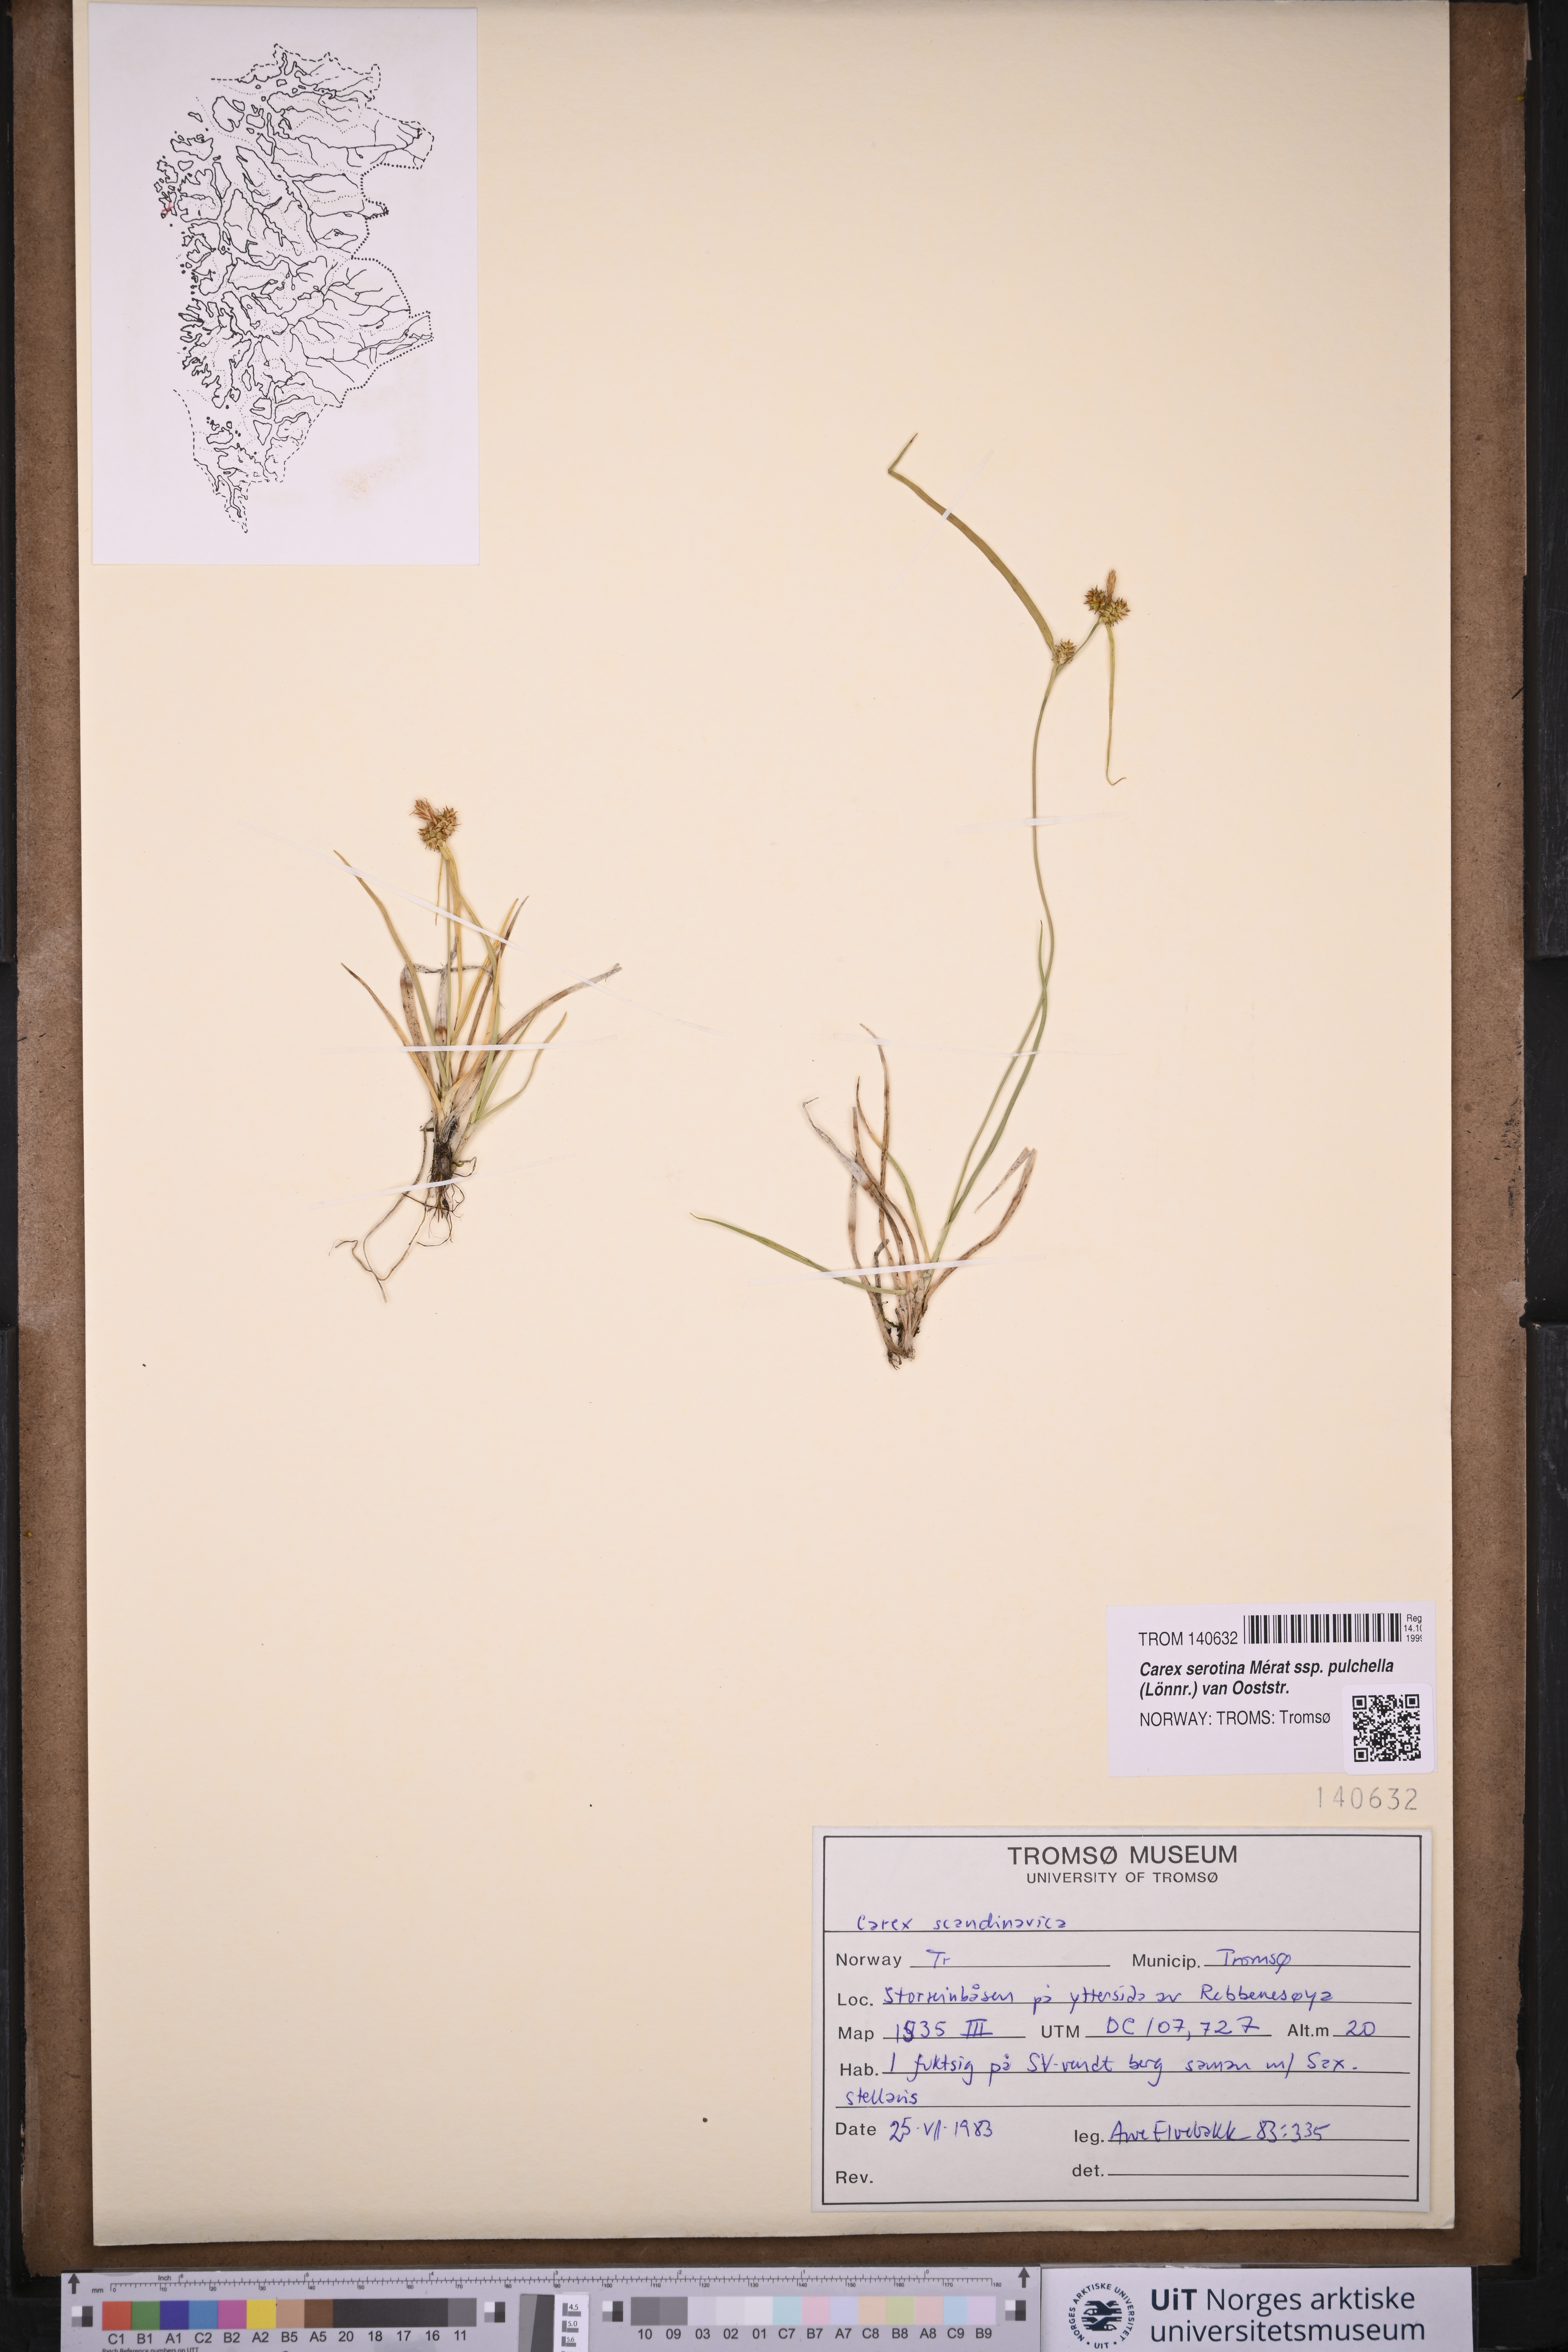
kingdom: Plantae
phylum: Tracheophyta
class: Liliopsida
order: Poales
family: Cyperaceae
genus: Carex
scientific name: Carex oederi
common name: Common & small-fruited yellow-sedge
